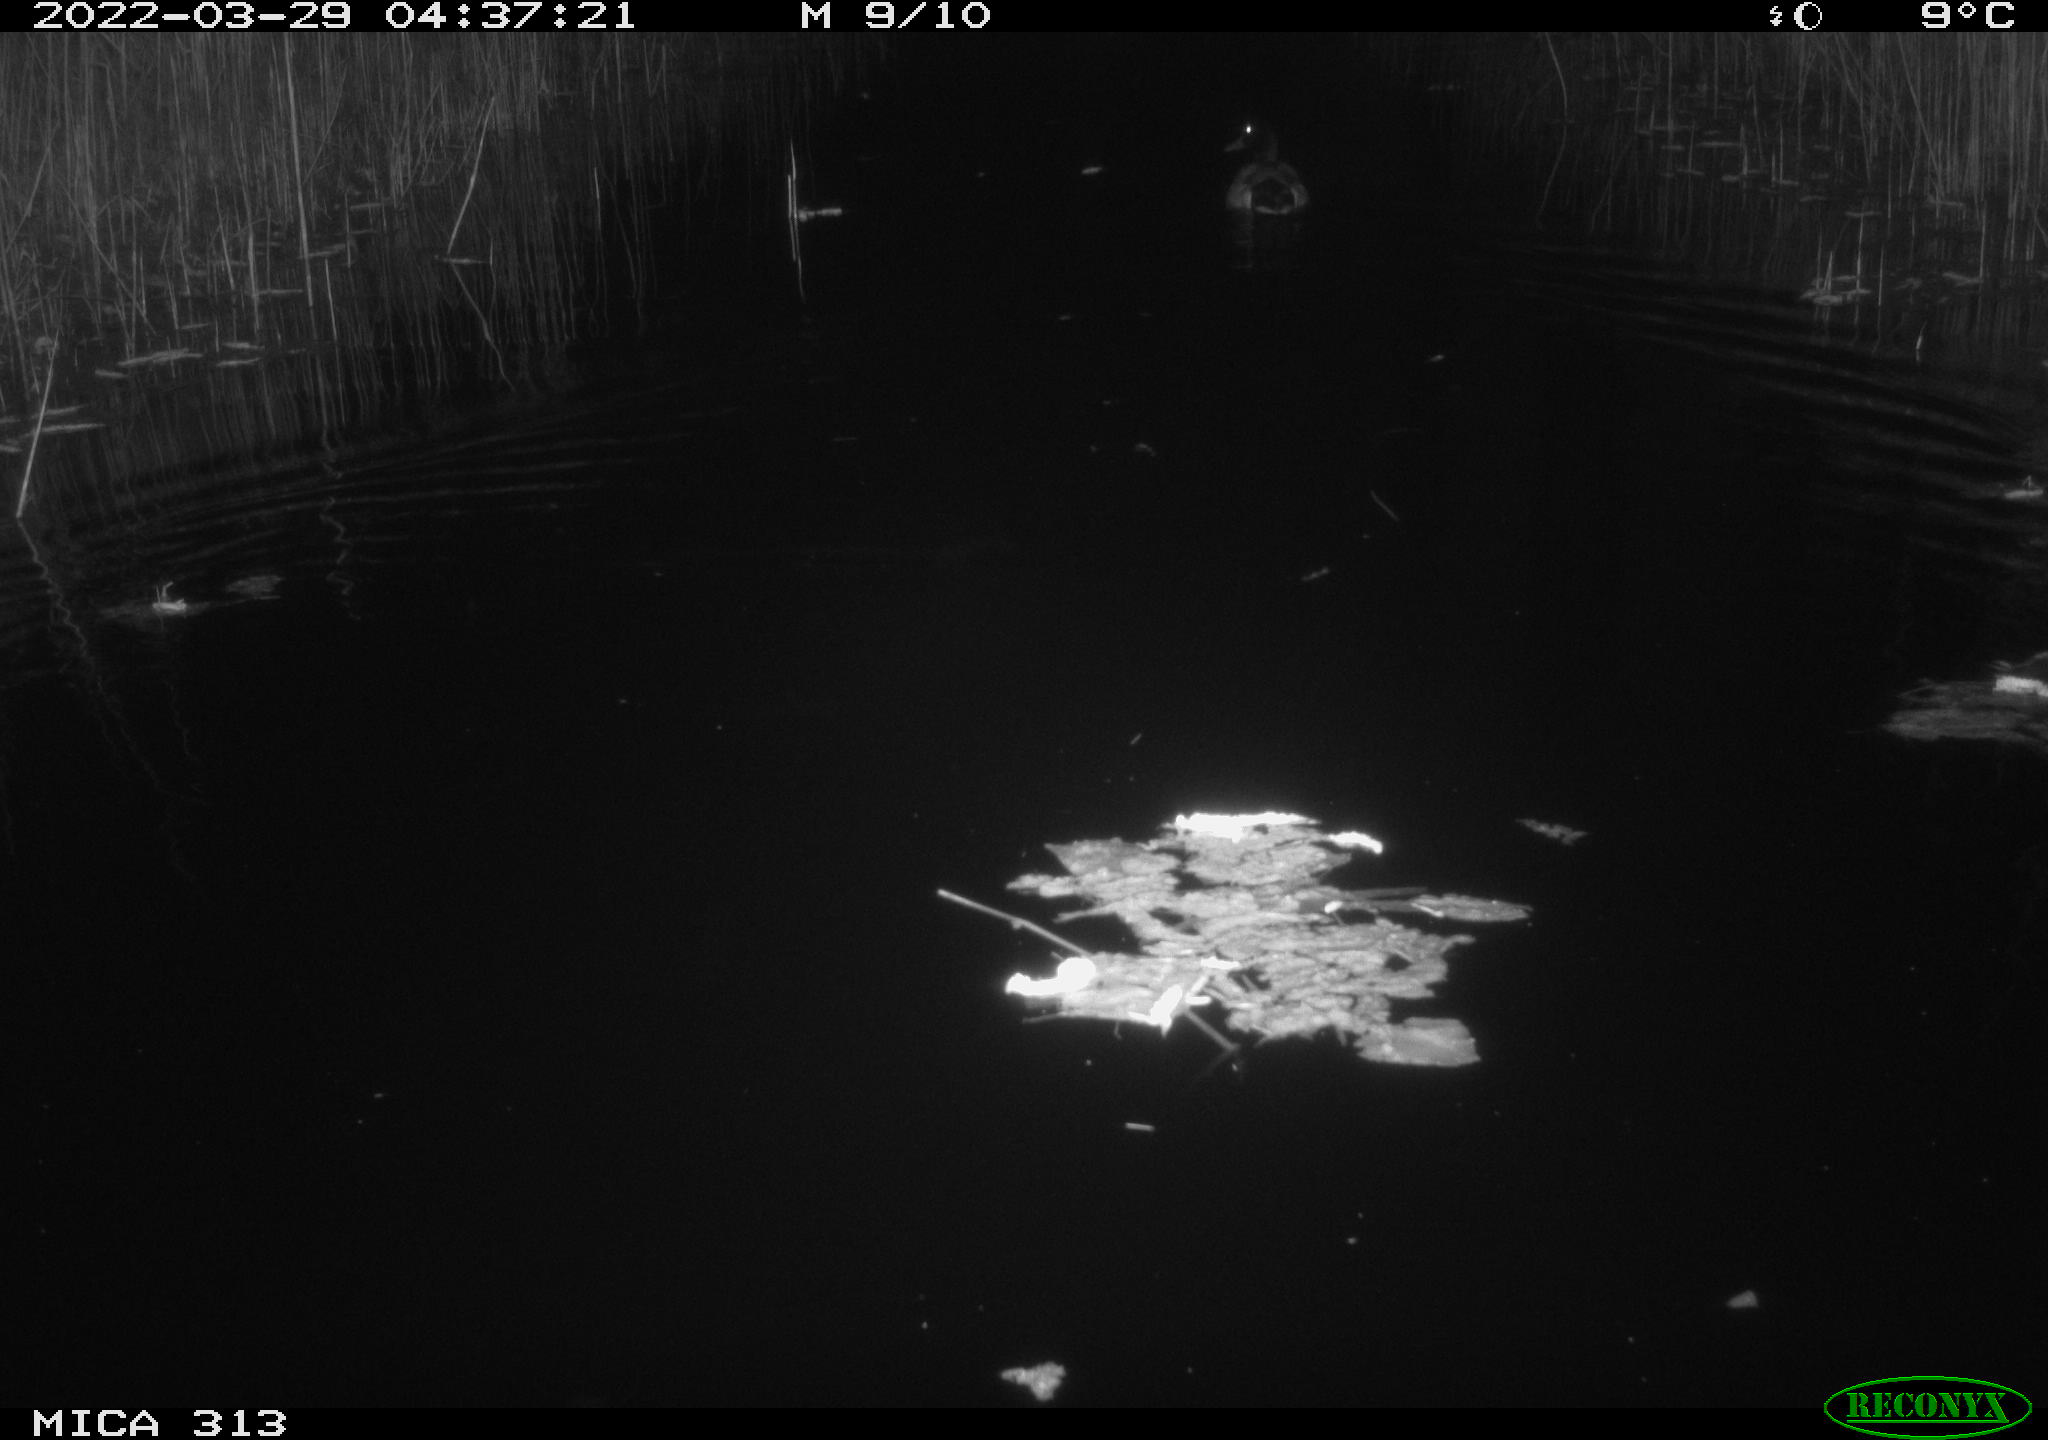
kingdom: Animalia
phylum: Chordata
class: Aves
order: Anseriformes
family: Anatidae
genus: Anas
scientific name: Anas platyrhynchos
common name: Mallard
